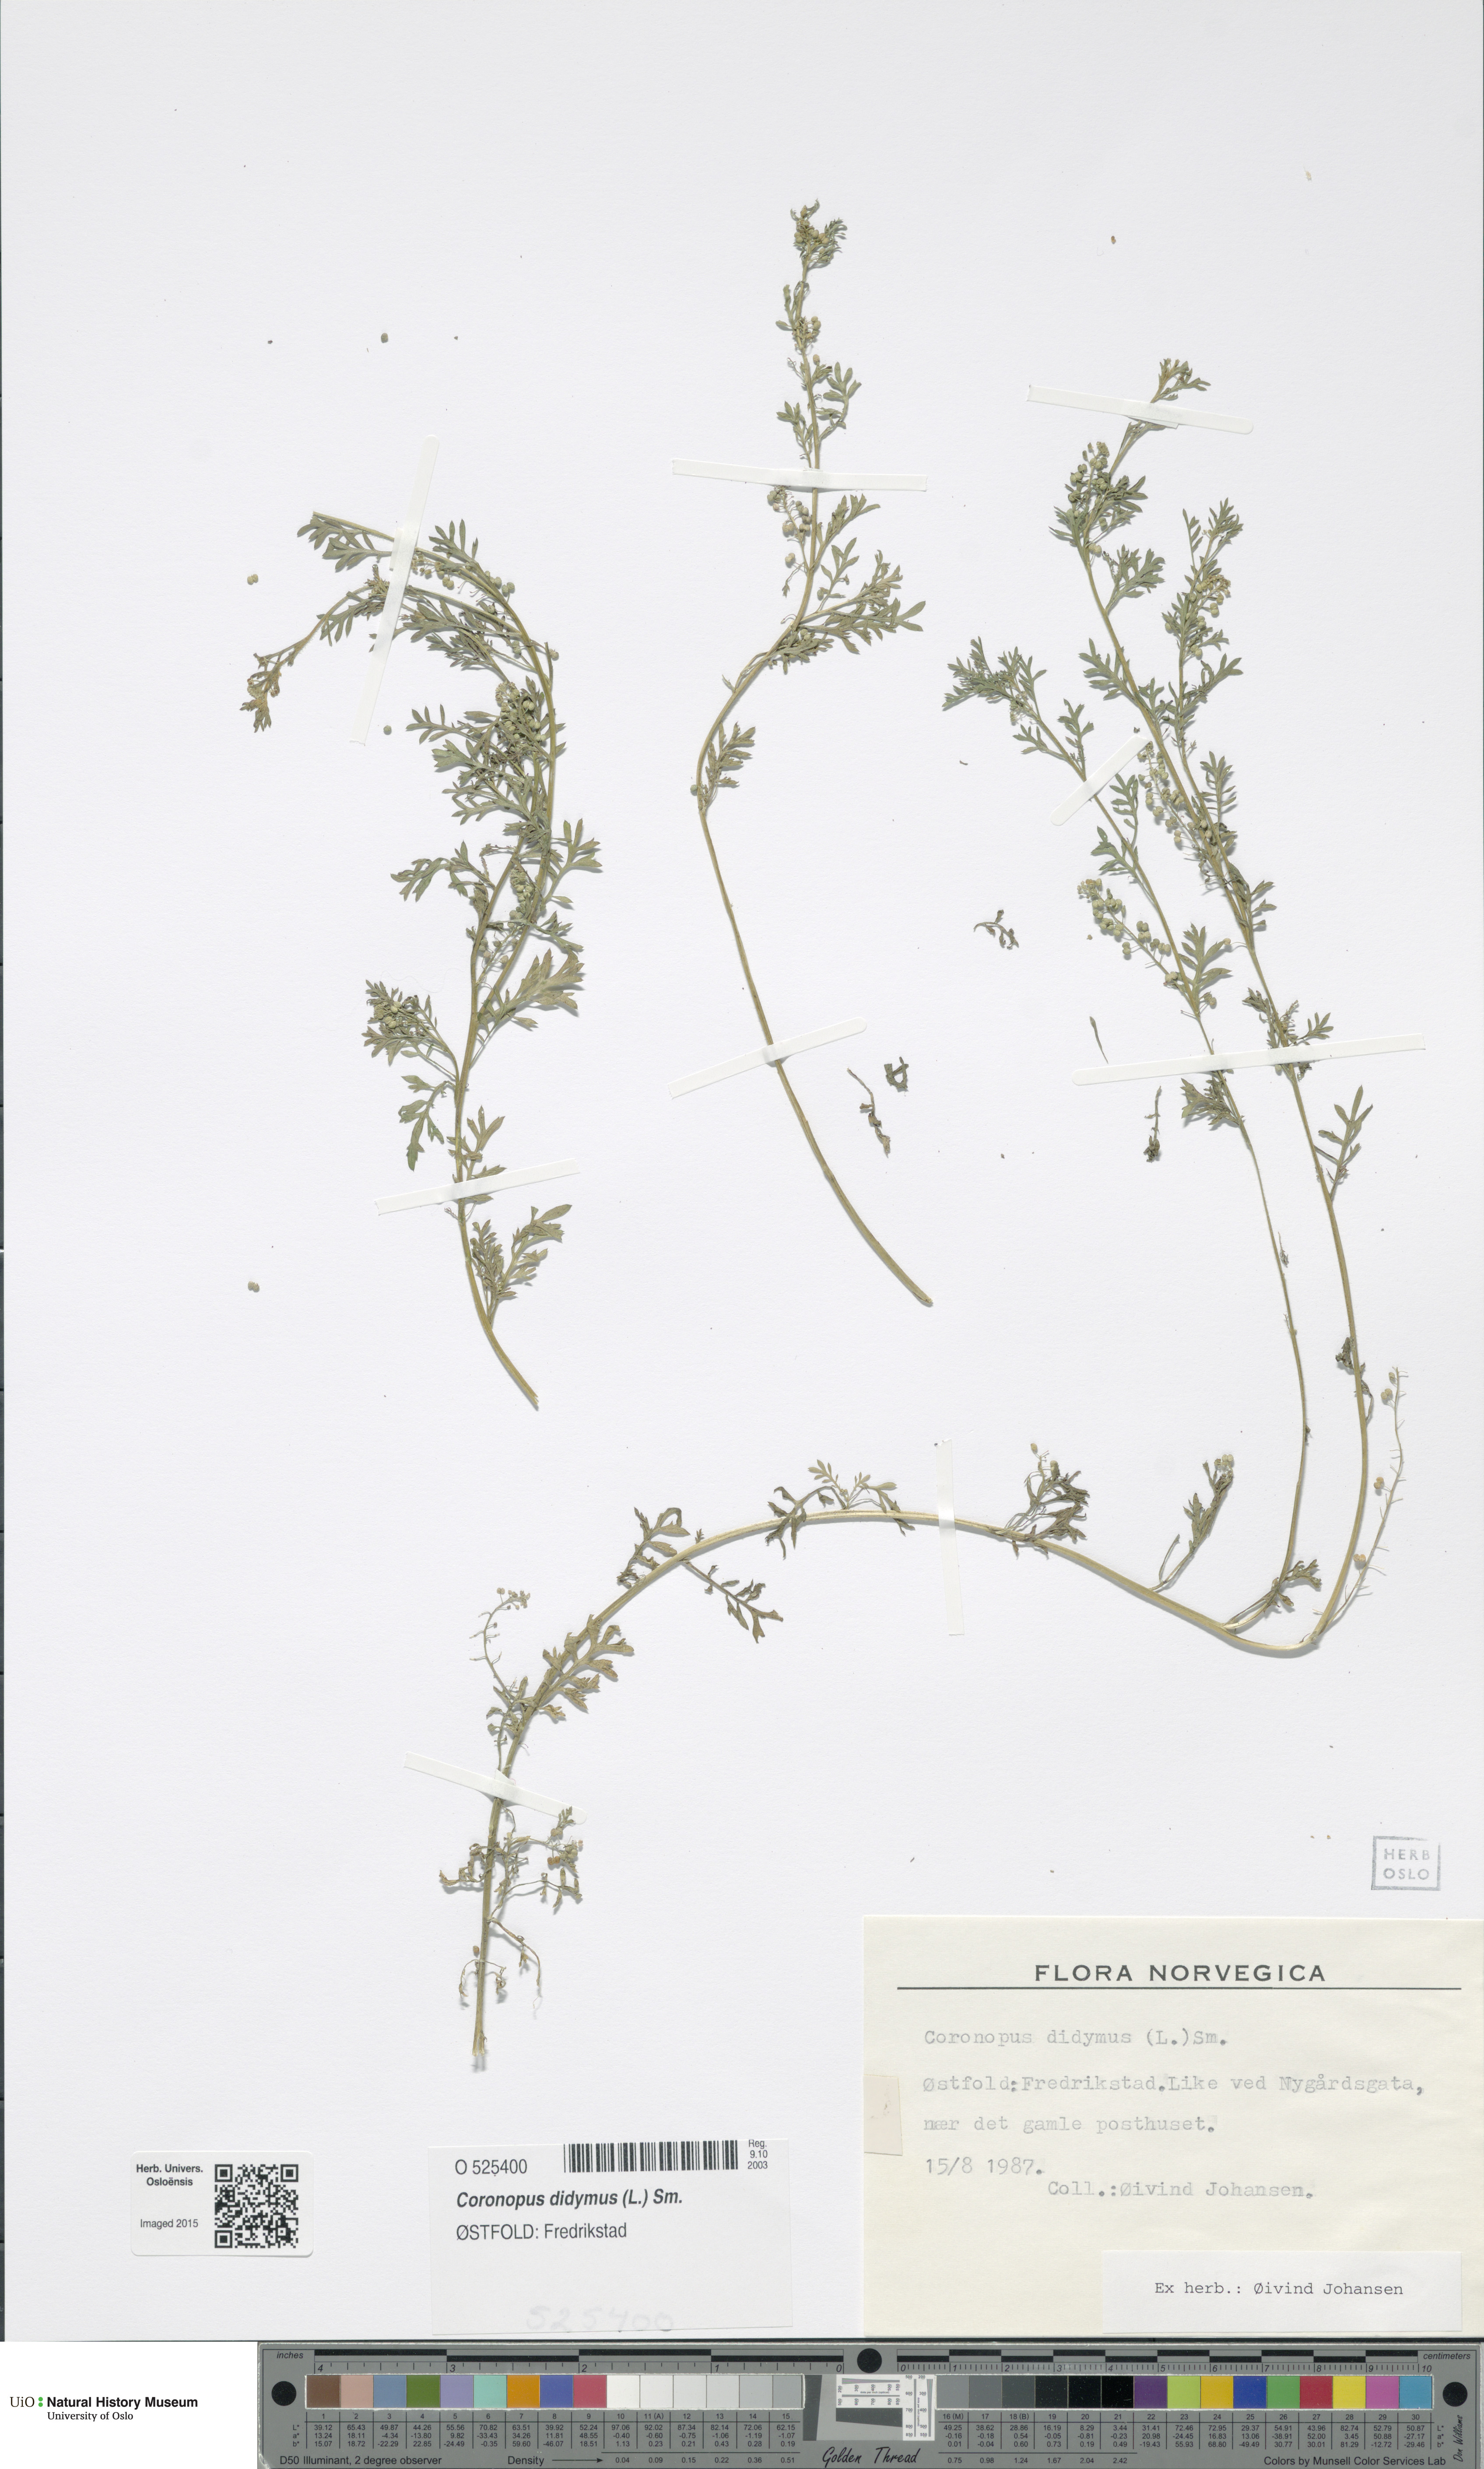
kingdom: Plantae
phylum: Tracheophyta
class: Magnoliopsida
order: Brassicales
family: Brassicaceae
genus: Lepidium
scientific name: Lepidium didymum
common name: Lesser swinecress
